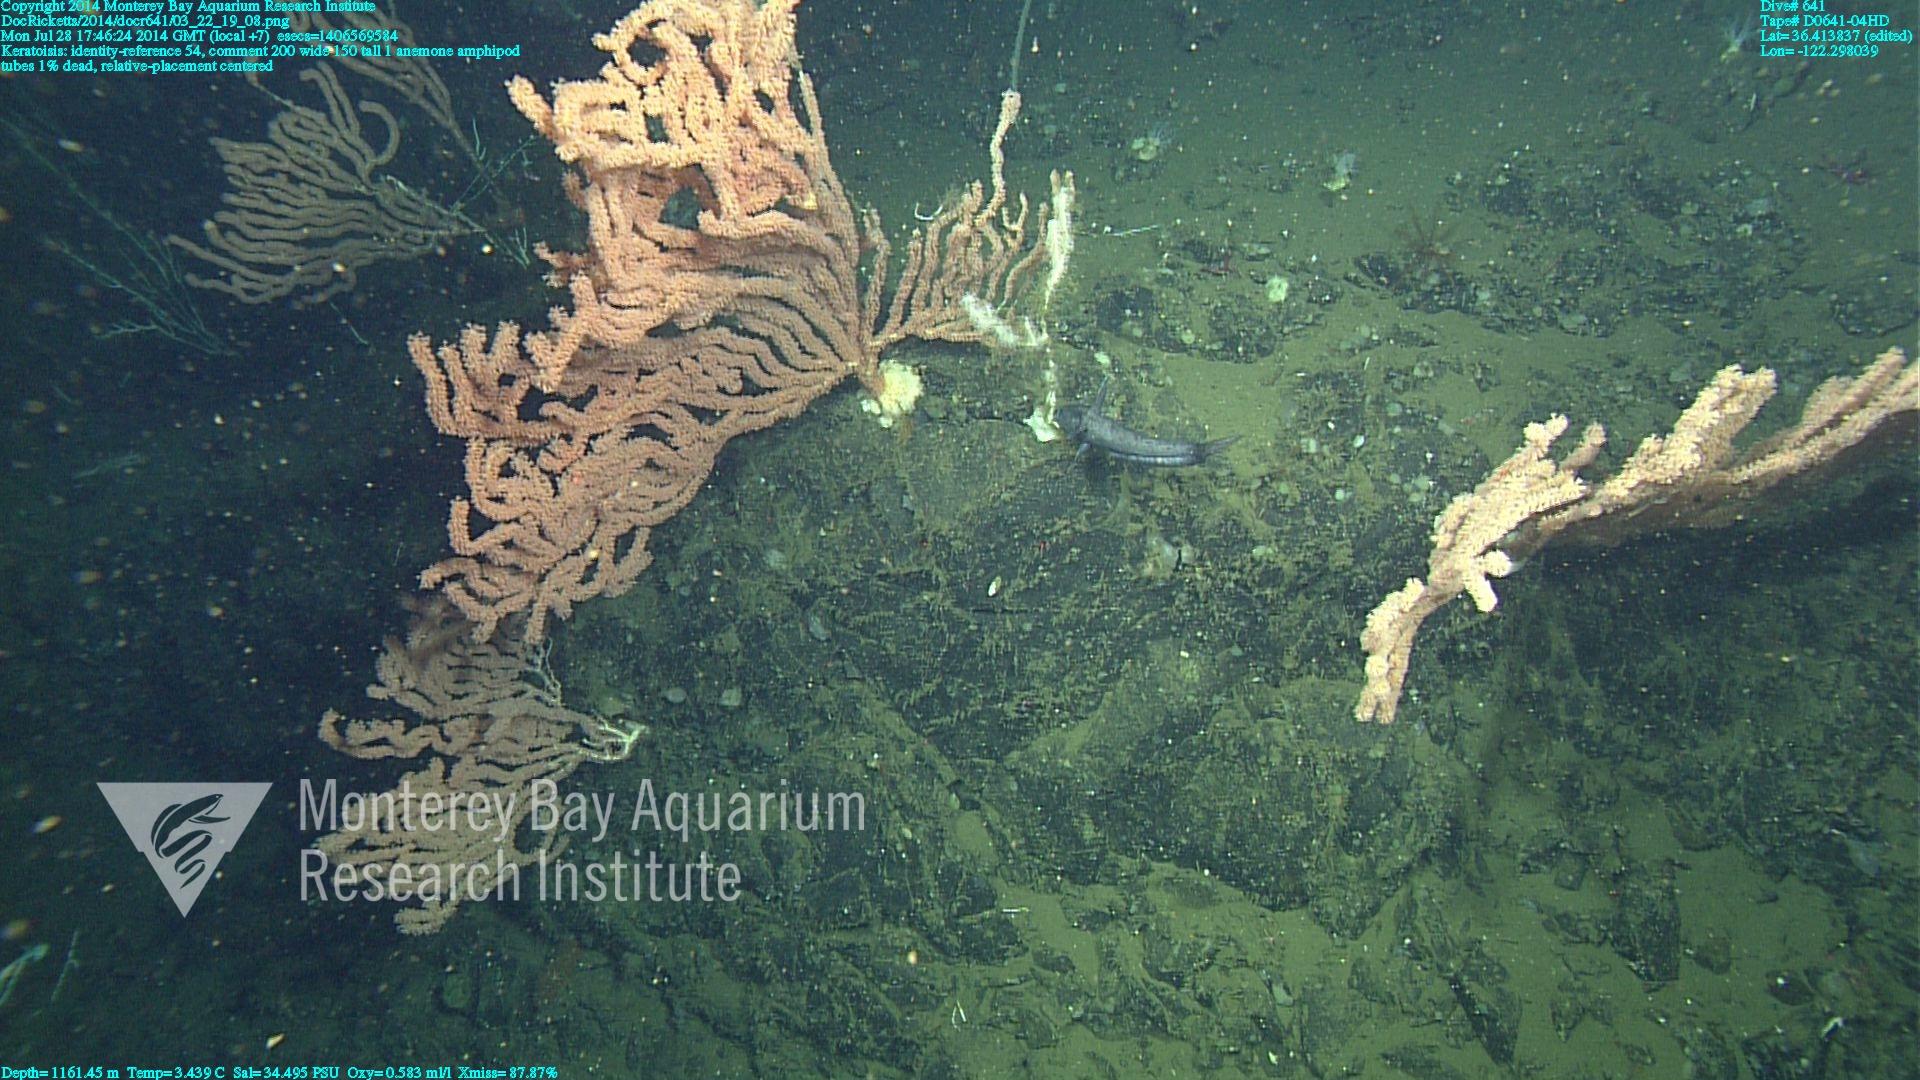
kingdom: Animalia
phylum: Cnidaria
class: Anthozoa
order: Scleralcyonacea
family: Keratoisididae
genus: Keratoisis
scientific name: Keratoisis
